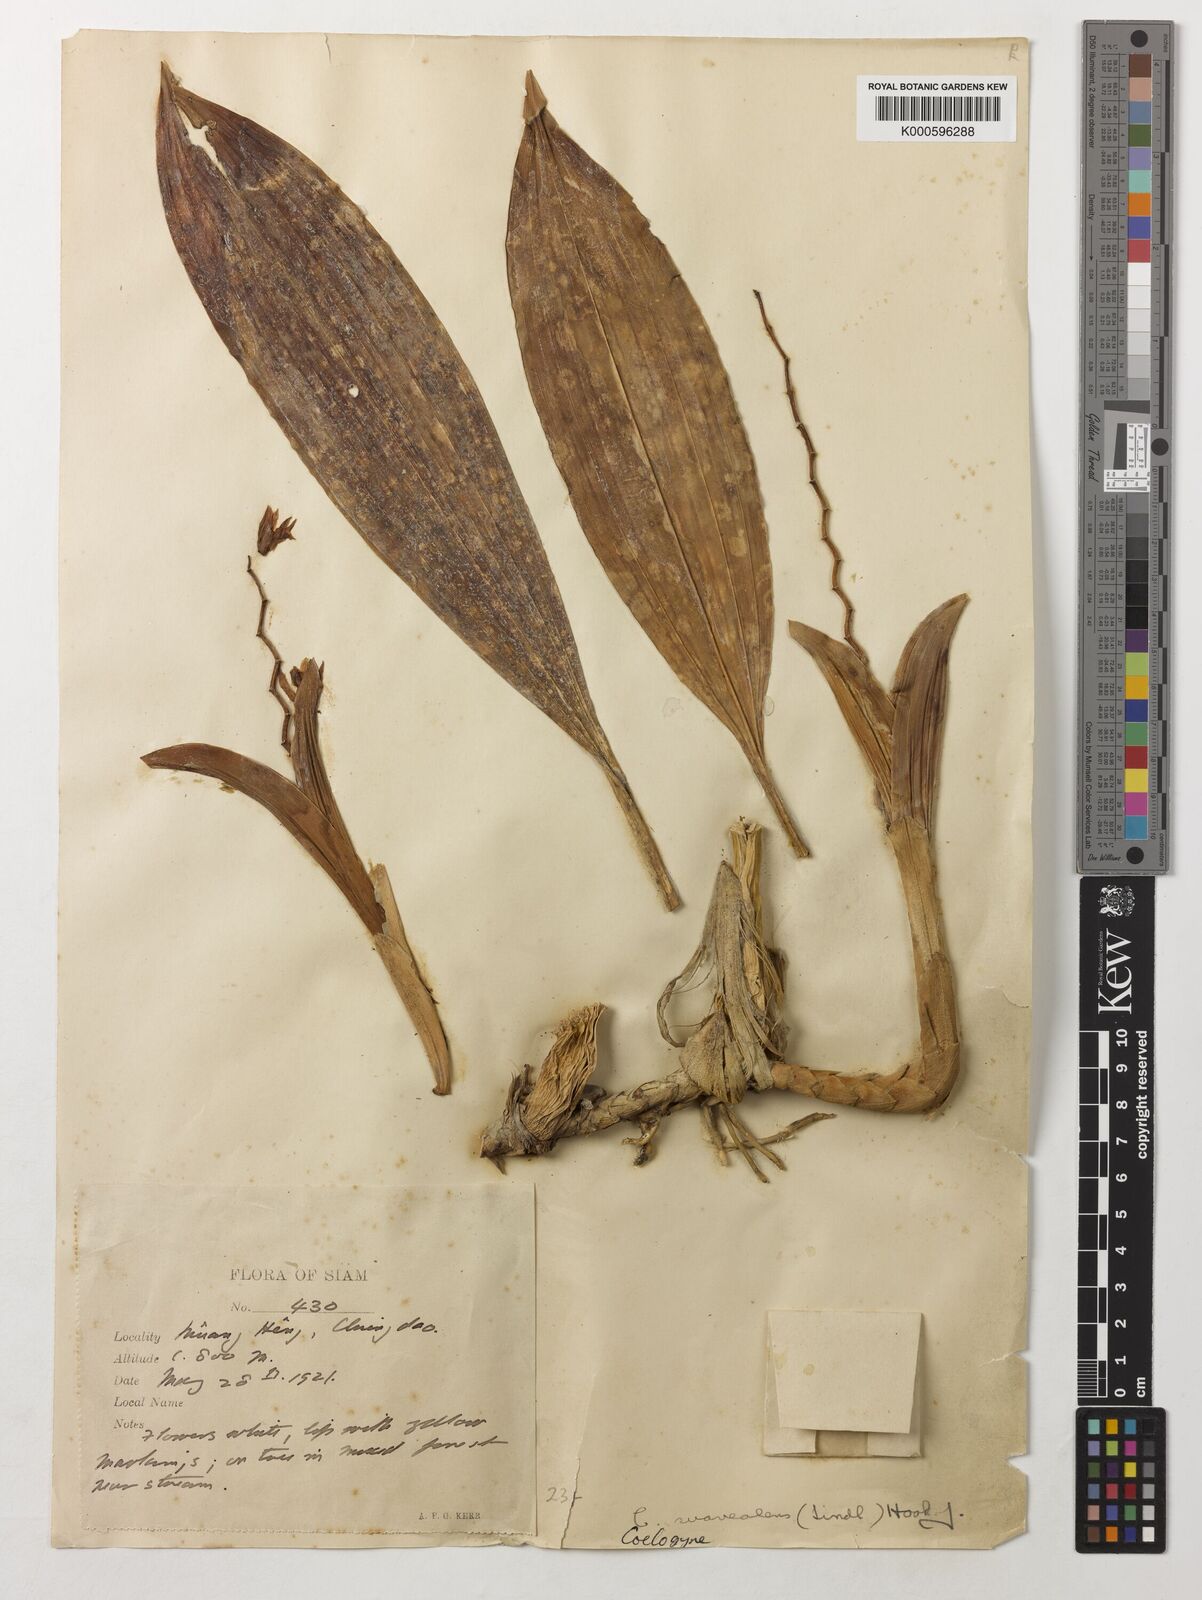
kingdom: Plantae
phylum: Tracheophyta
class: Liliopsida
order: Asparagales
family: Orchidaceae
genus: Coelogyne
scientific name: Coelogyne suaveolens
